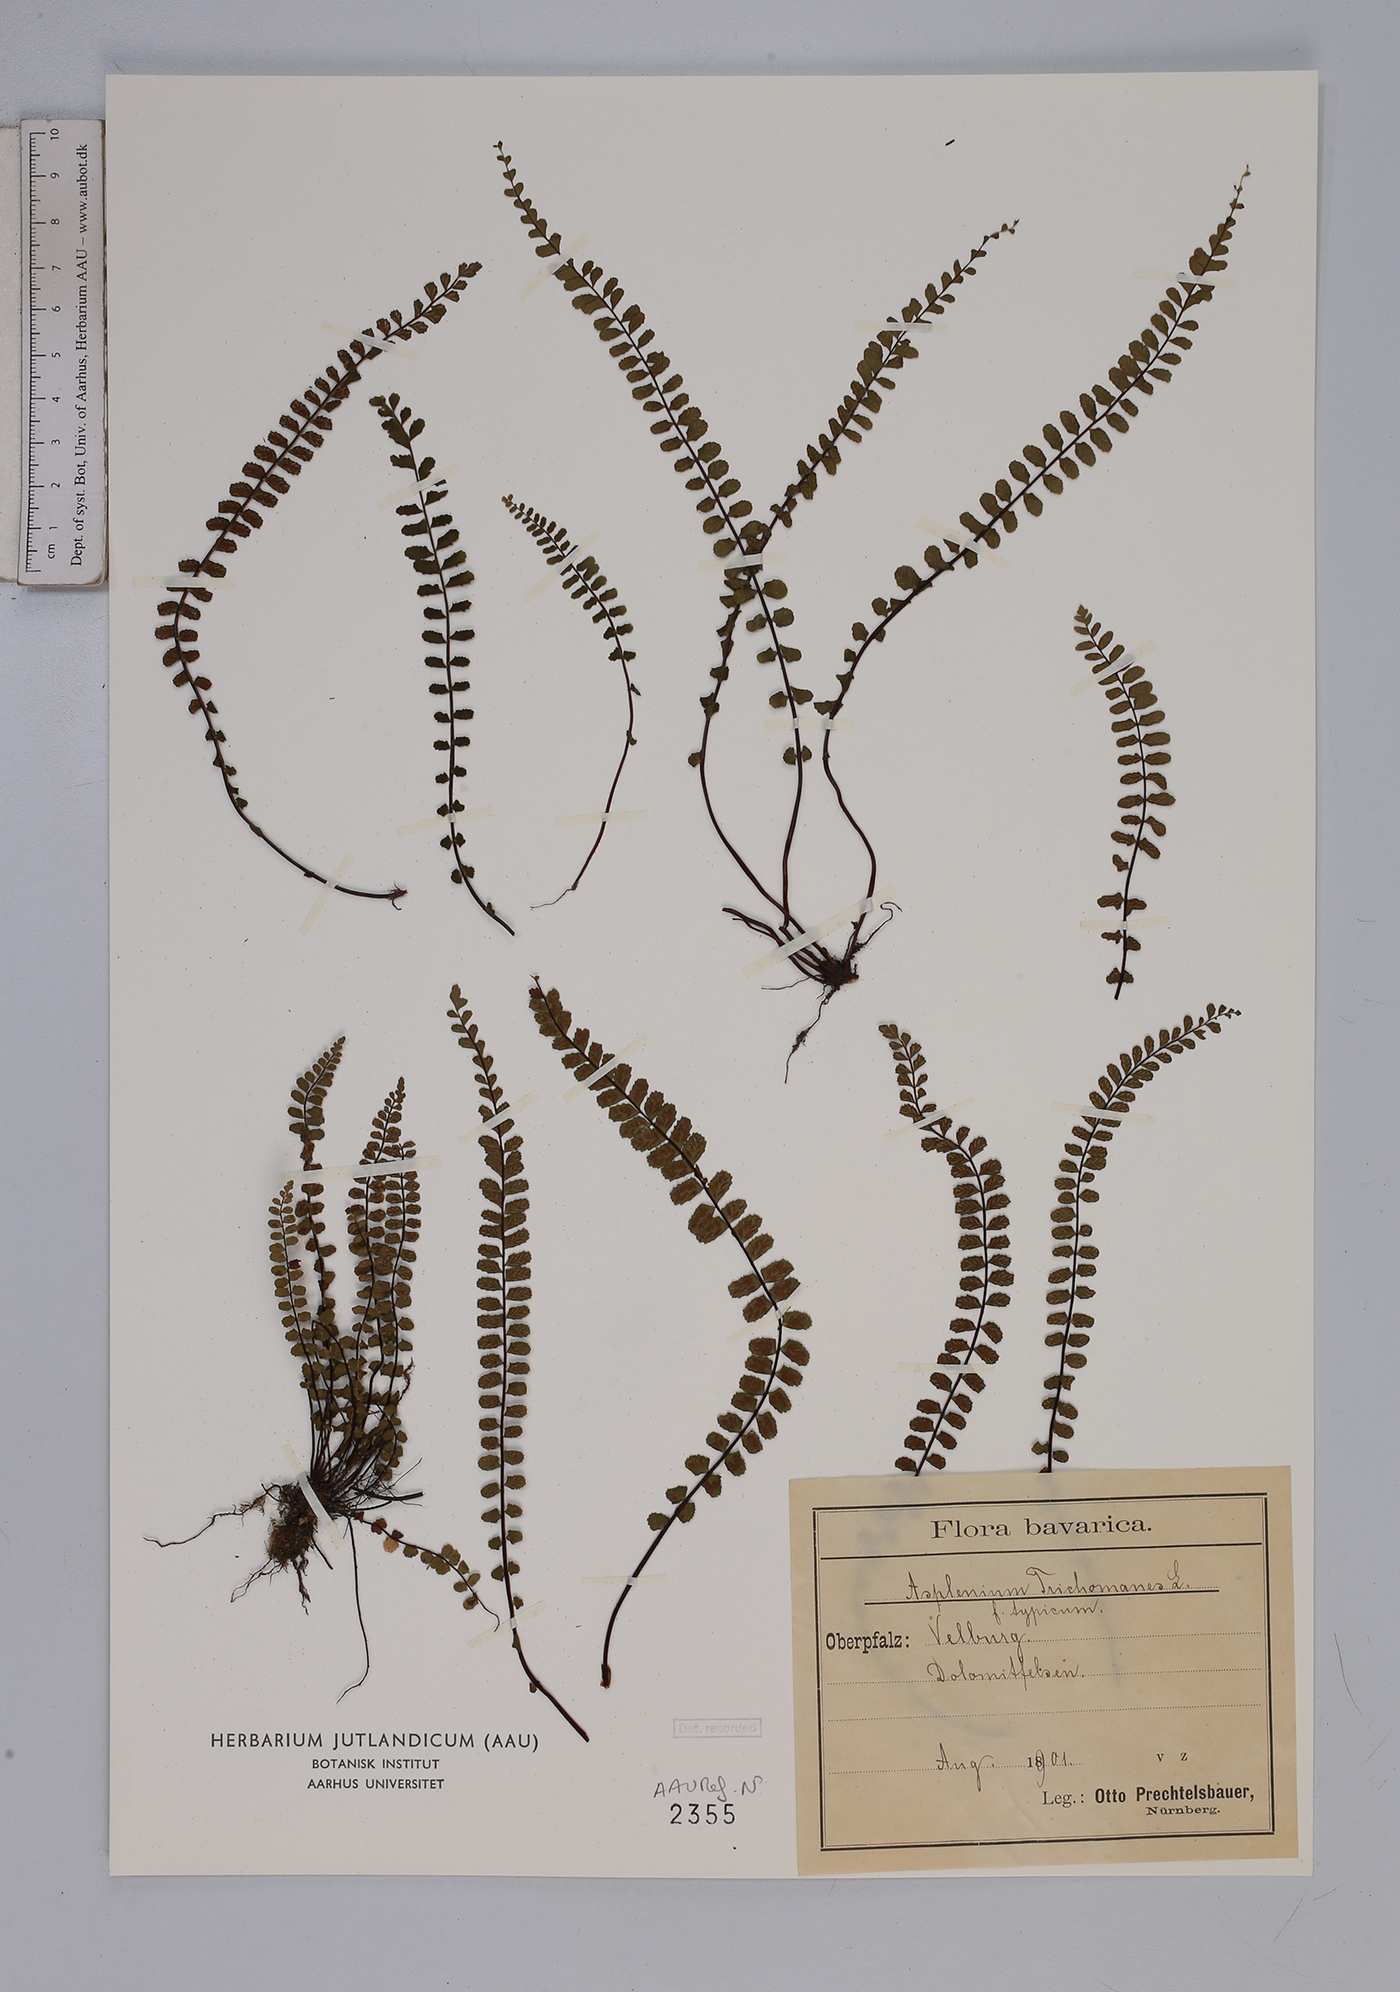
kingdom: Plantae
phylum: Tracheophyta
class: Polypodiopsida
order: Polypodiales
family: Aspleniaceae
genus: Asplenium
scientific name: Asplenium trichomanes
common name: Maidenhair spleenwort
